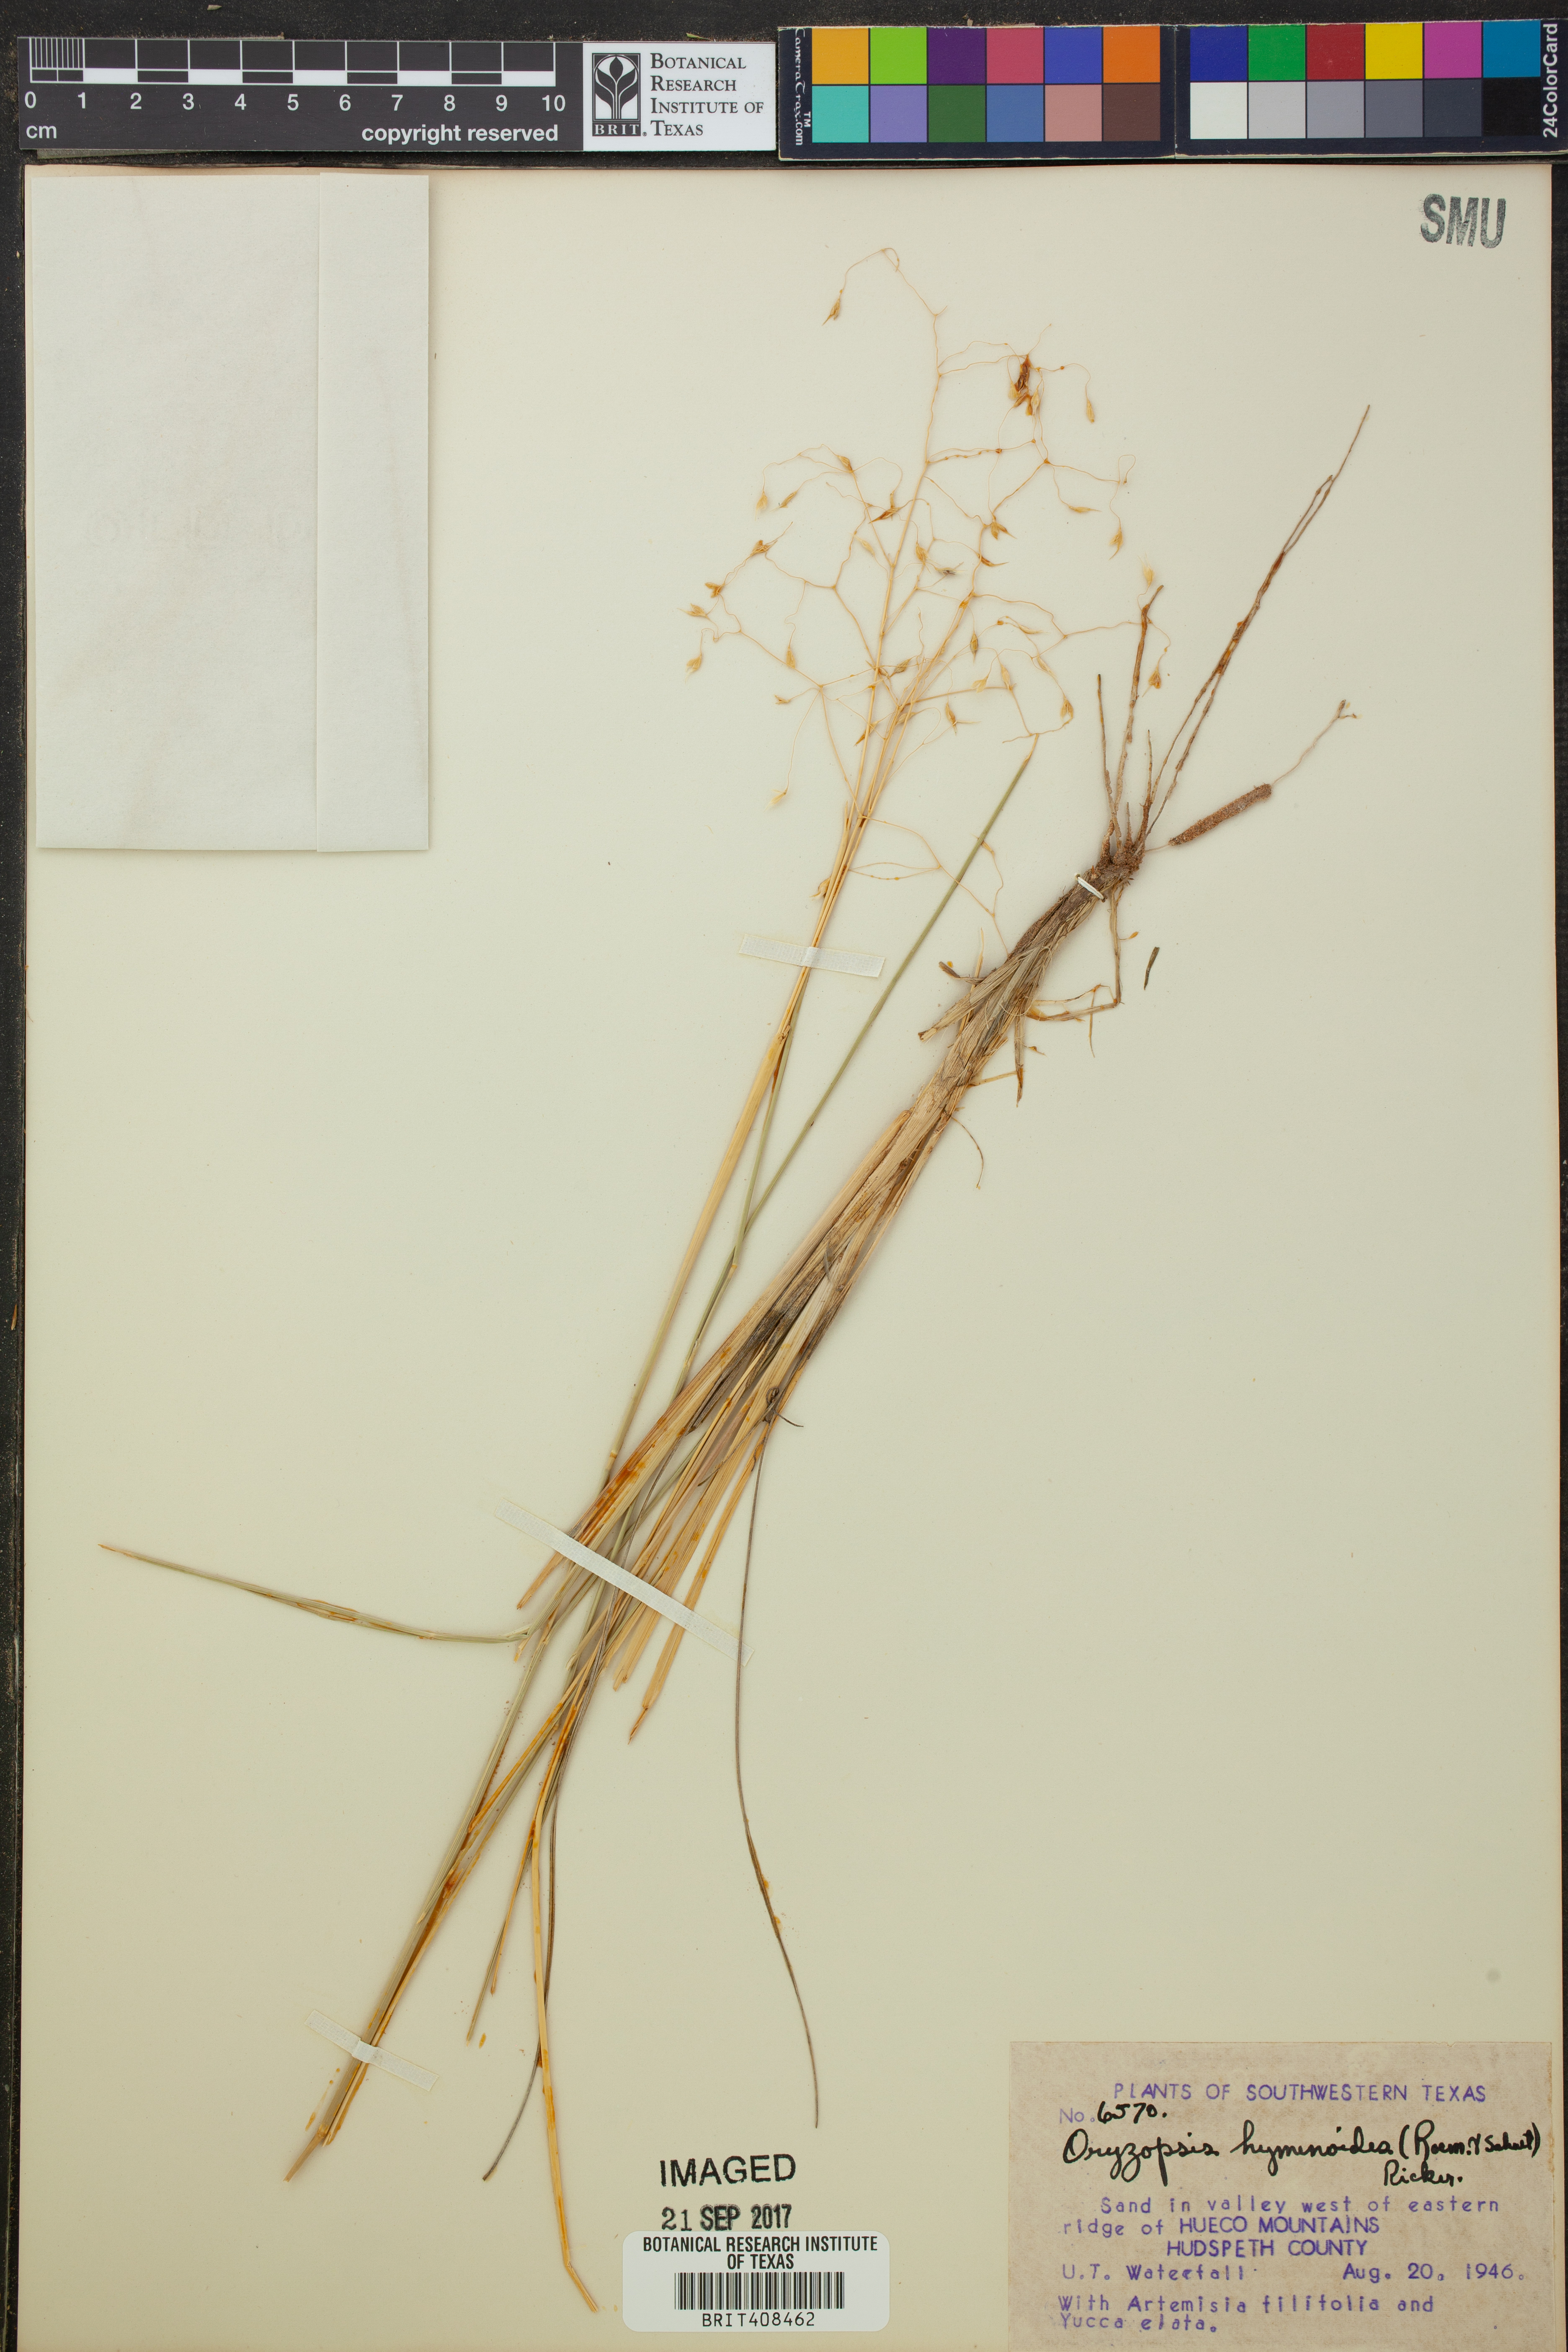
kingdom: Plantae
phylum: Tracheophyta
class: Liliopsida
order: Poales
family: Poaceae
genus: Eriocoma
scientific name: Eriocoma hymenoides
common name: Indian mountain ricegrass
